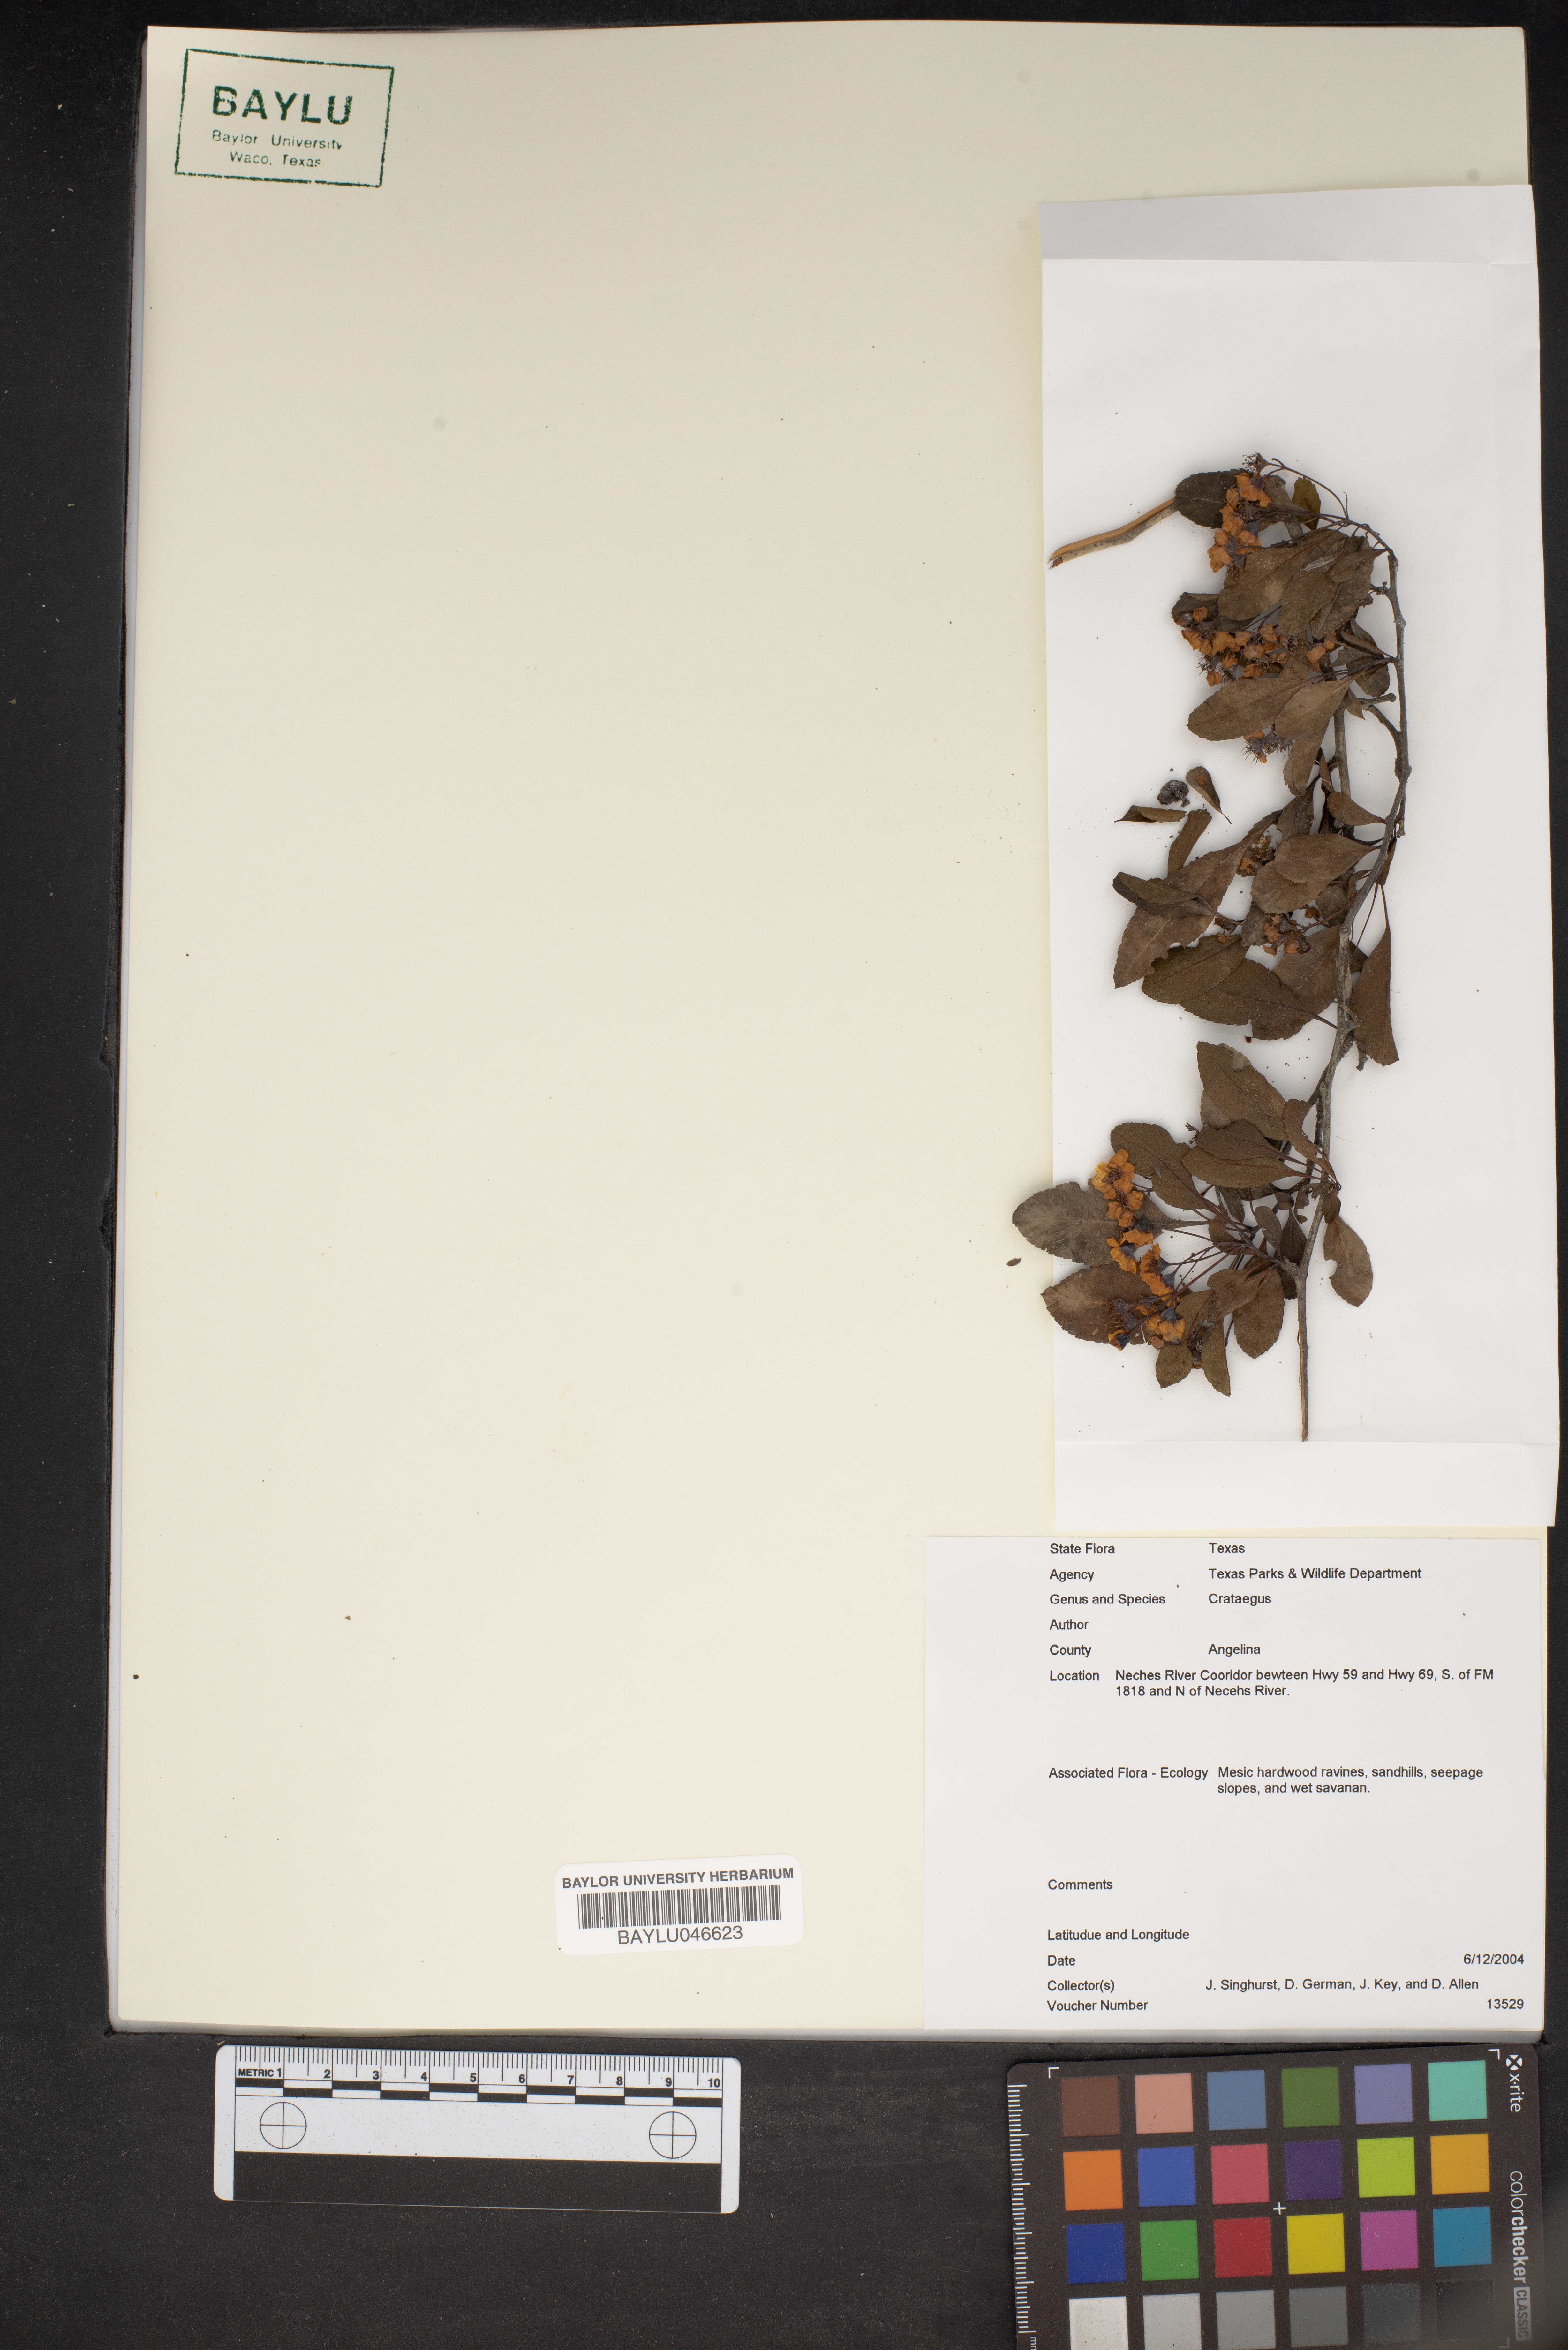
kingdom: Plantae
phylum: Tracheophyta
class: Magnoliopsida
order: Rosales
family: Rosaceae
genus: Crataegus
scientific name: Crataegus
